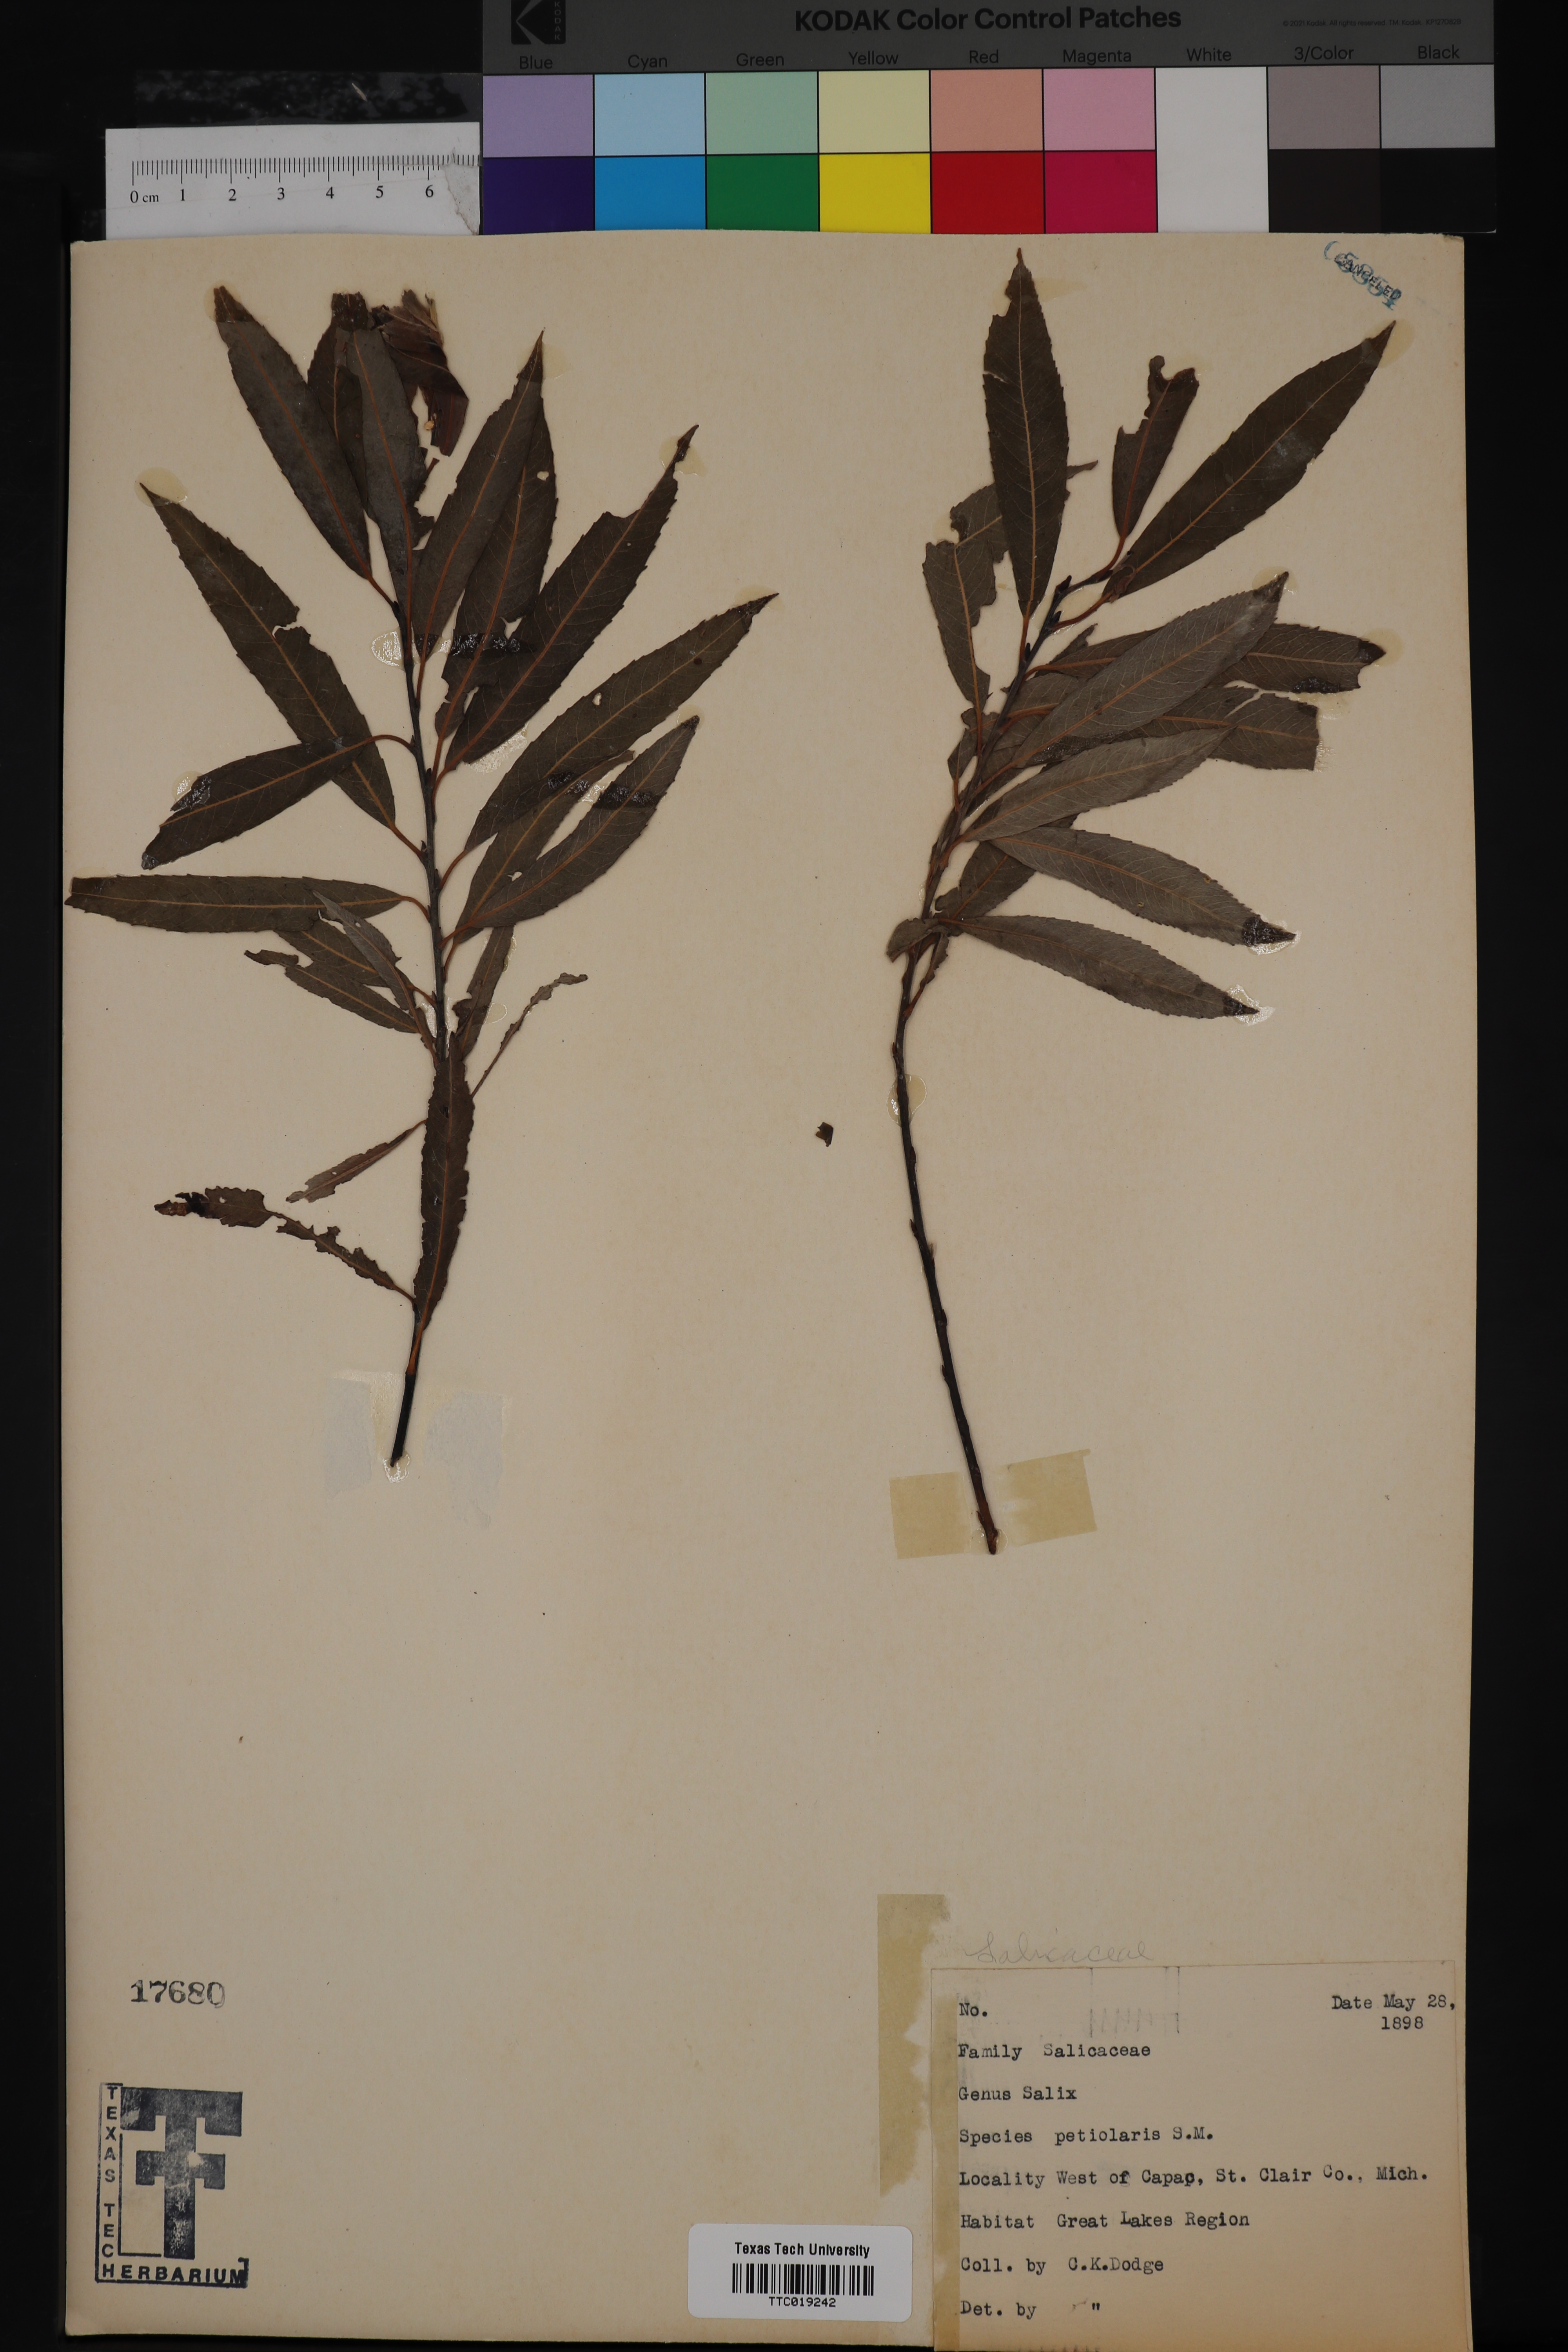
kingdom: Plantae
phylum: Tracheophyta
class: Magnoliopsida
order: Malpighiales
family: Salicaceae
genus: Salix
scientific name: Salix petiolaris
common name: Slender willow
